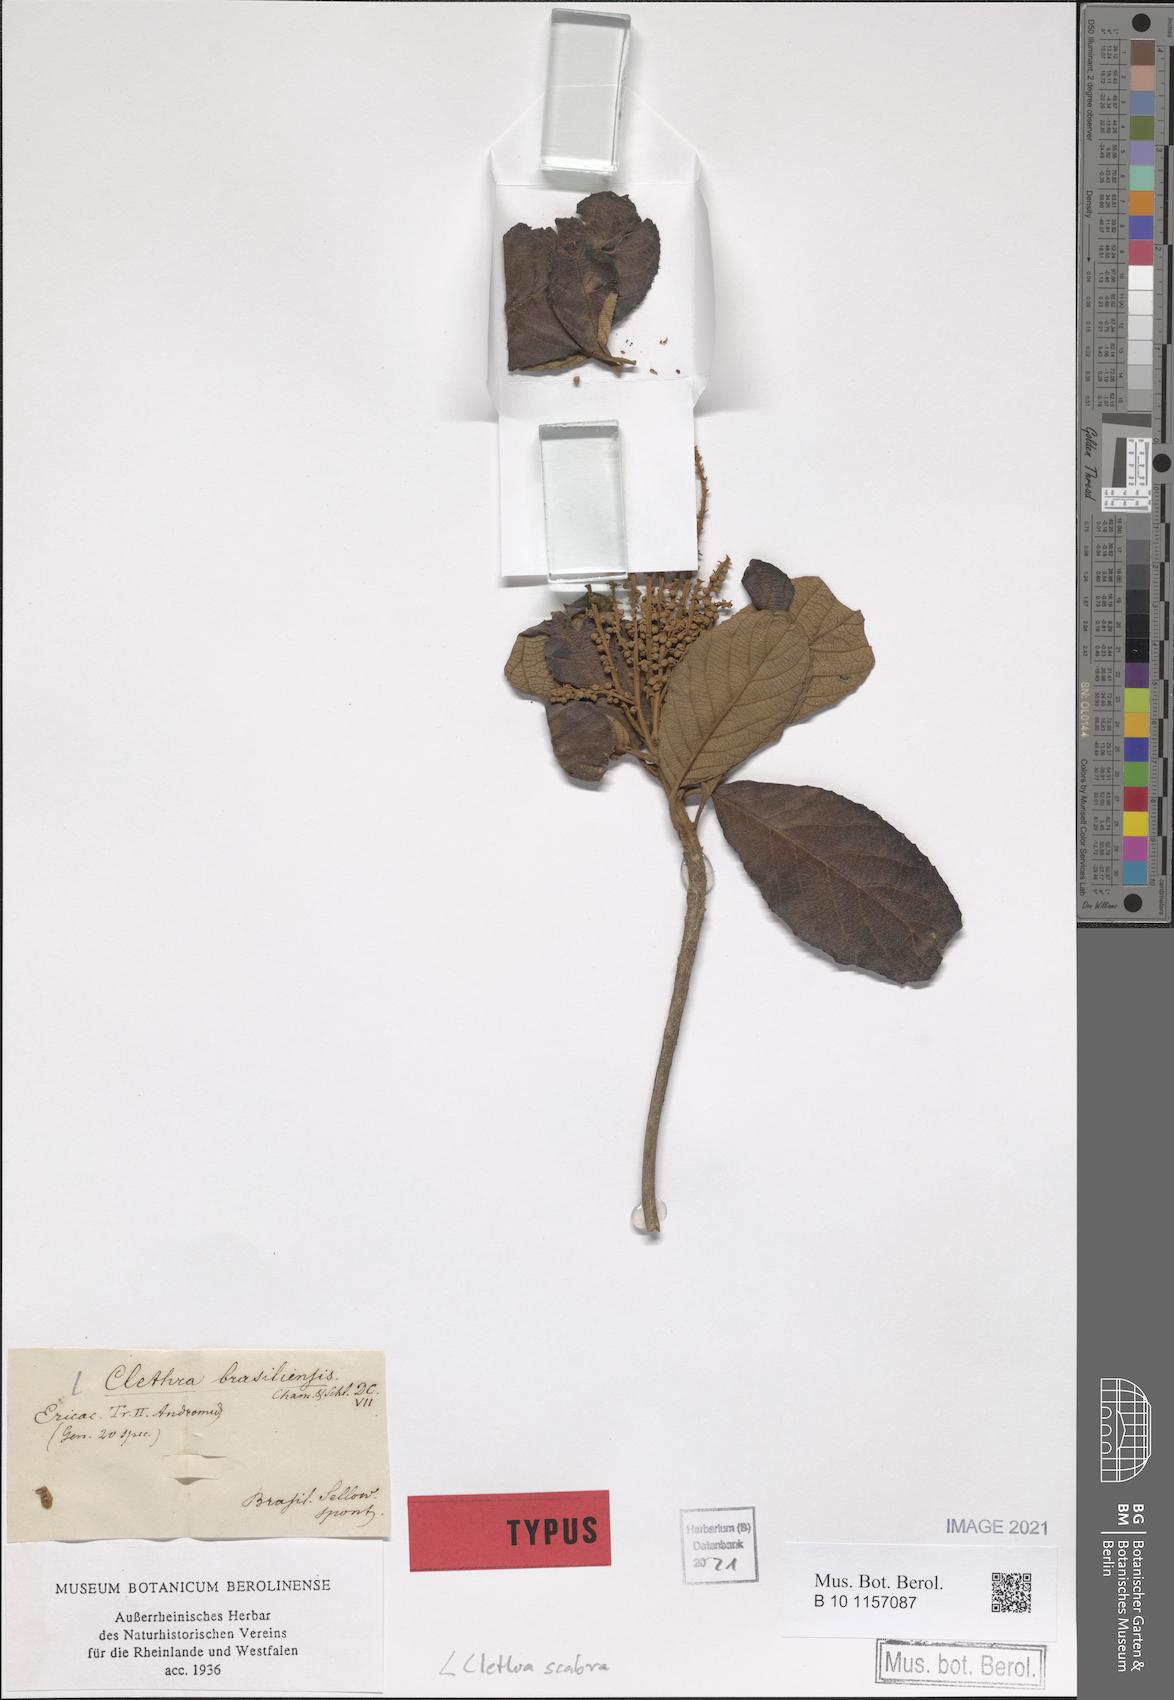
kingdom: Plantae
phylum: Tracheophyta
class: Magnoliopsida
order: Ericales
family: Clethraceae
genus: Clethra
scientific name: Clethra scabra
